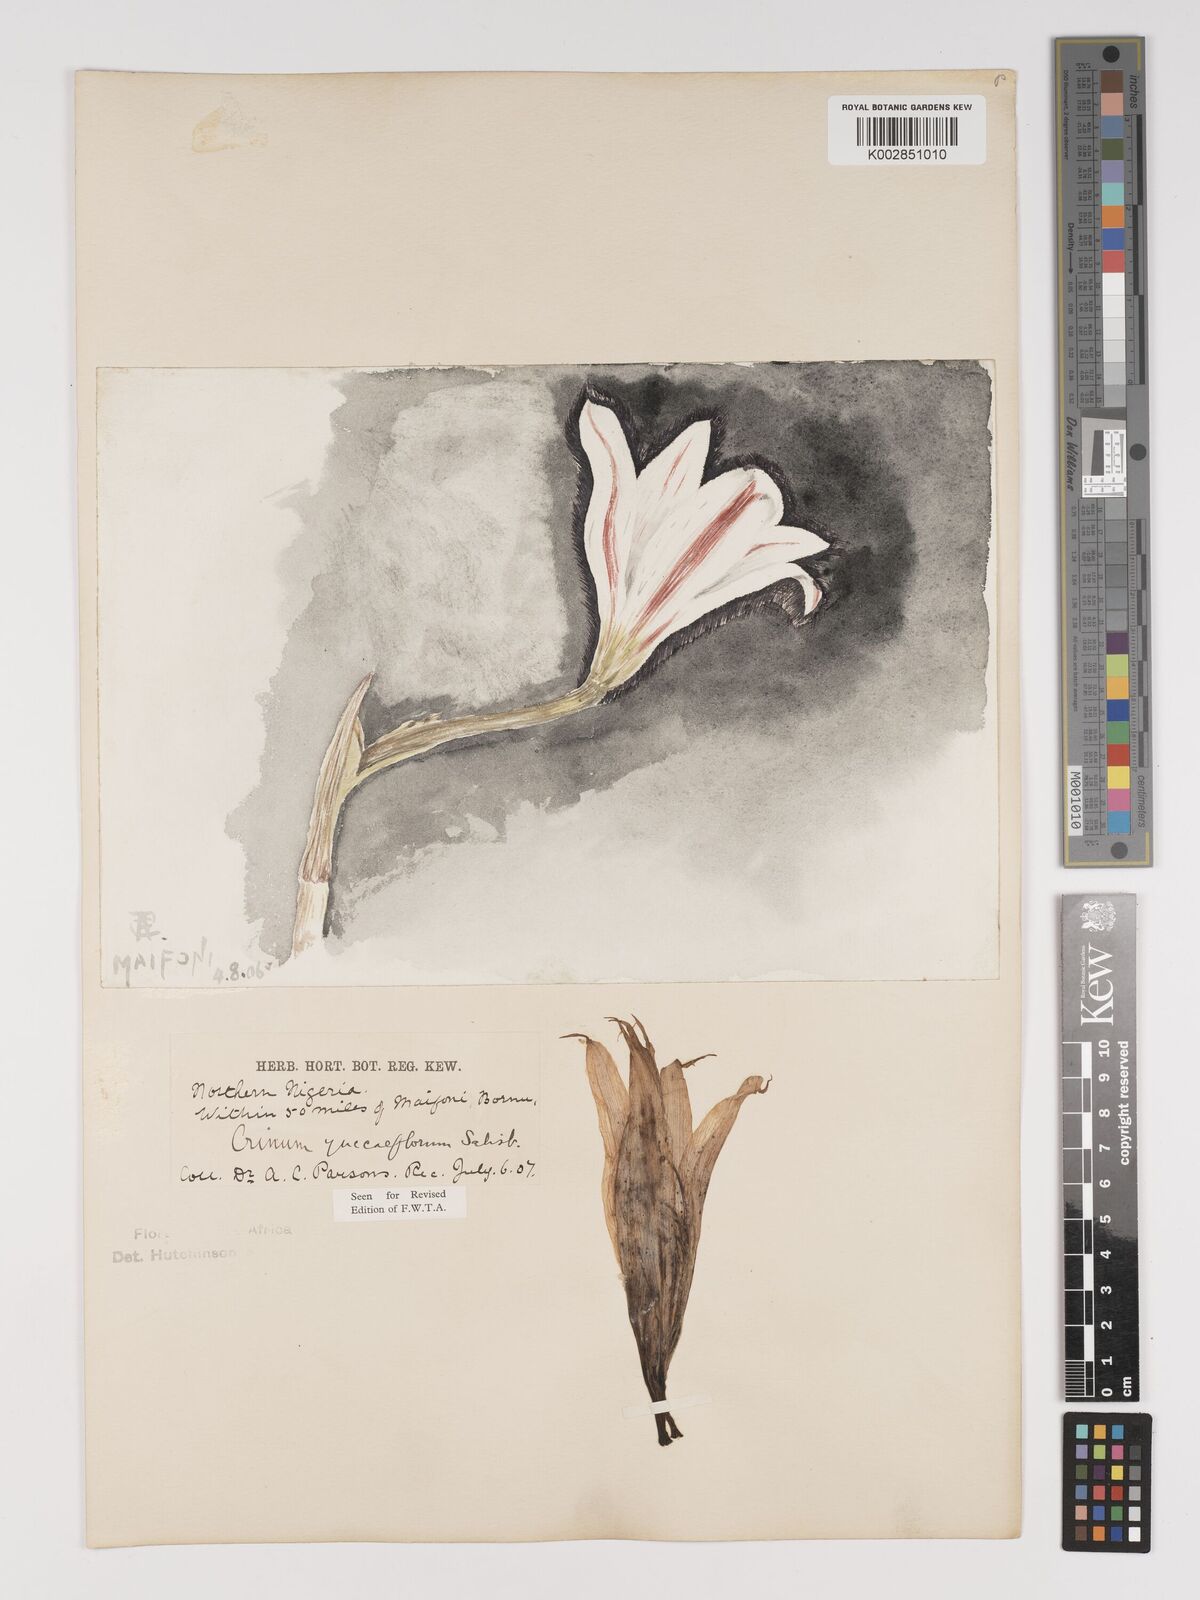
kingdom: Plantae
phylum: Tracheophyta
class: Liliopsida
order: Asparagales
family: Amaryllidaceae
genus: Crinum
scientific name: Crinum zeylanicum
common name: Ceylon swamplily
